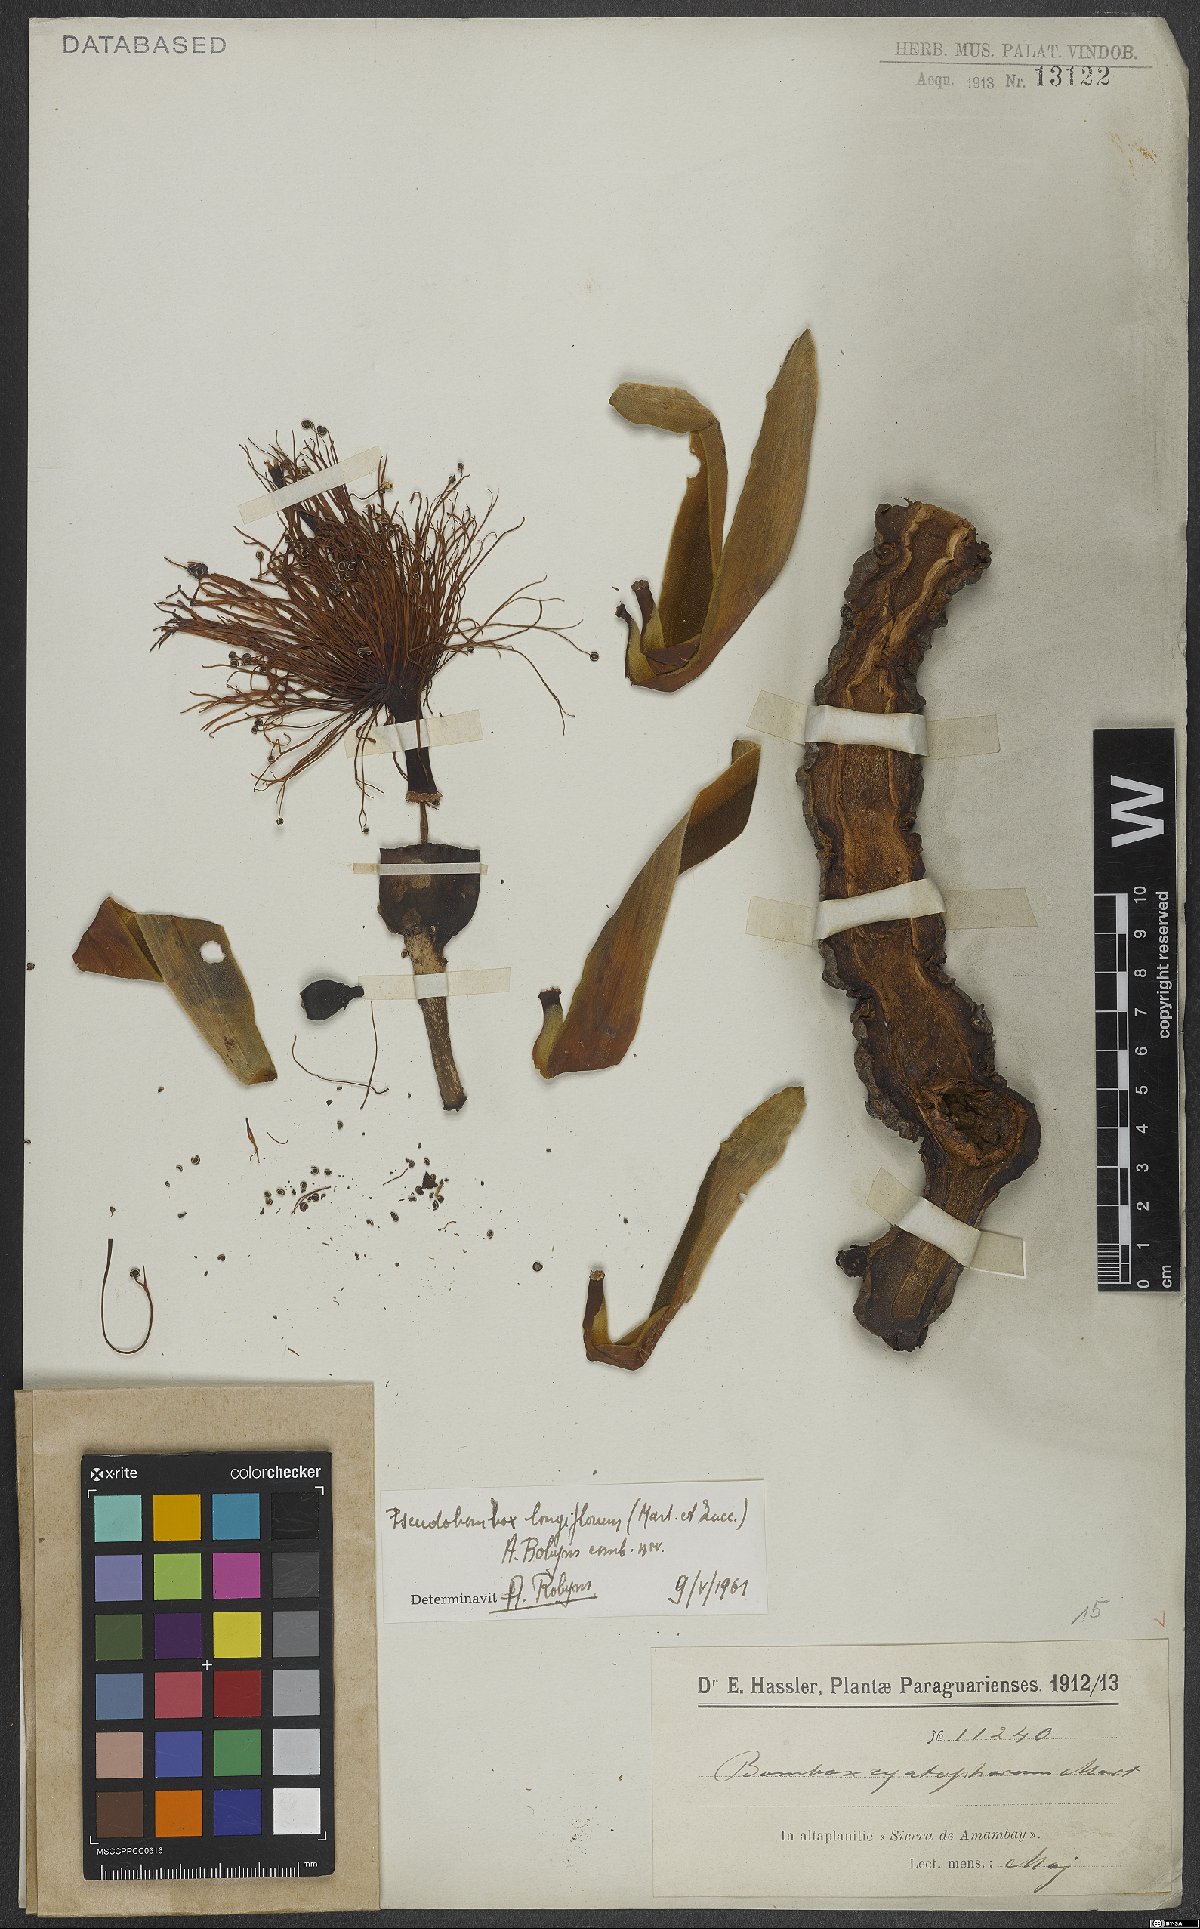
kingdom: Plantae
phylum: Tracheophyta
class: Magnoliopsida
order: Malvales
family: Malvaceae
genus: Pseudobombax
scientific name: Pseudobombax longiflorum
